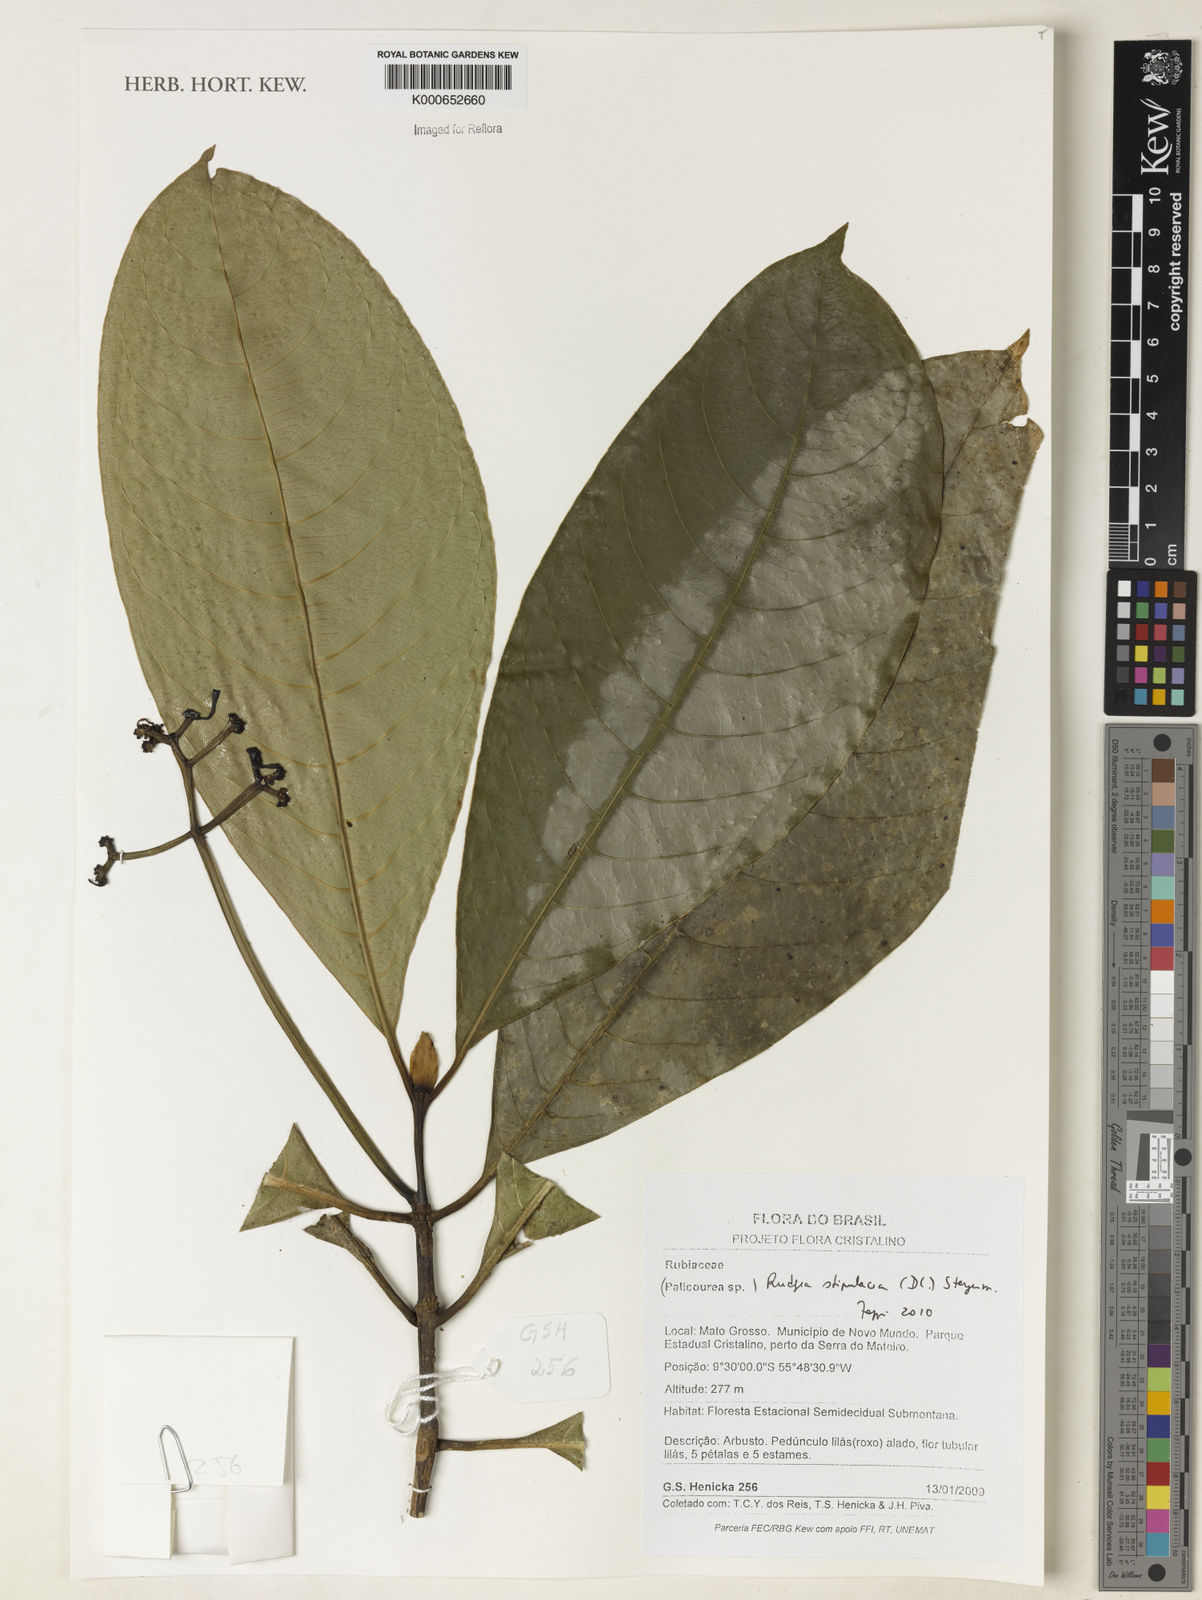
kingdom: Plantae
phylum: Tracheophyta
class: Magnoliopsida
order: Gentianales
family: Rubiaceae
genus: Rudgea
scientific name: Rudgea stipulacea
